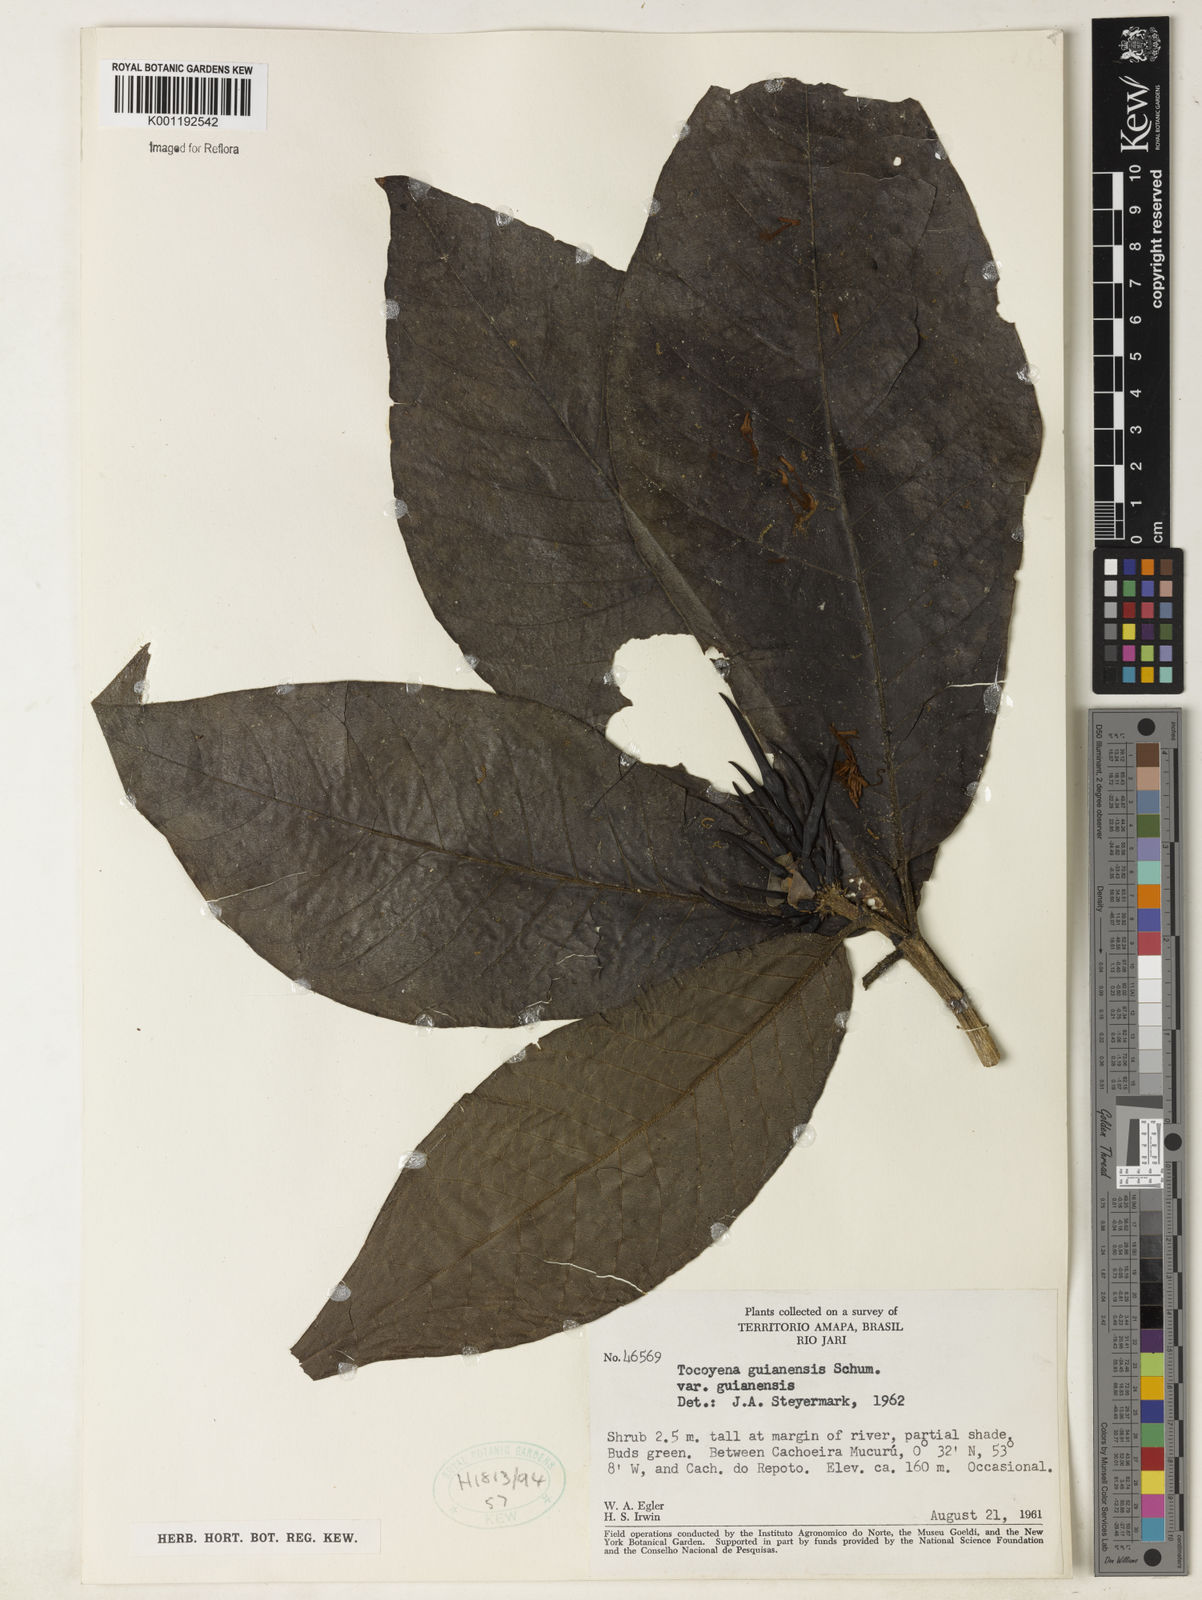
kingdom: Plantae
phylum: Tracheophyta
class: Magnoliopsida
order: Gentianales
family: Rubiaceae
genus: Tocoyena
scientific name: Tocoyena guianensis
